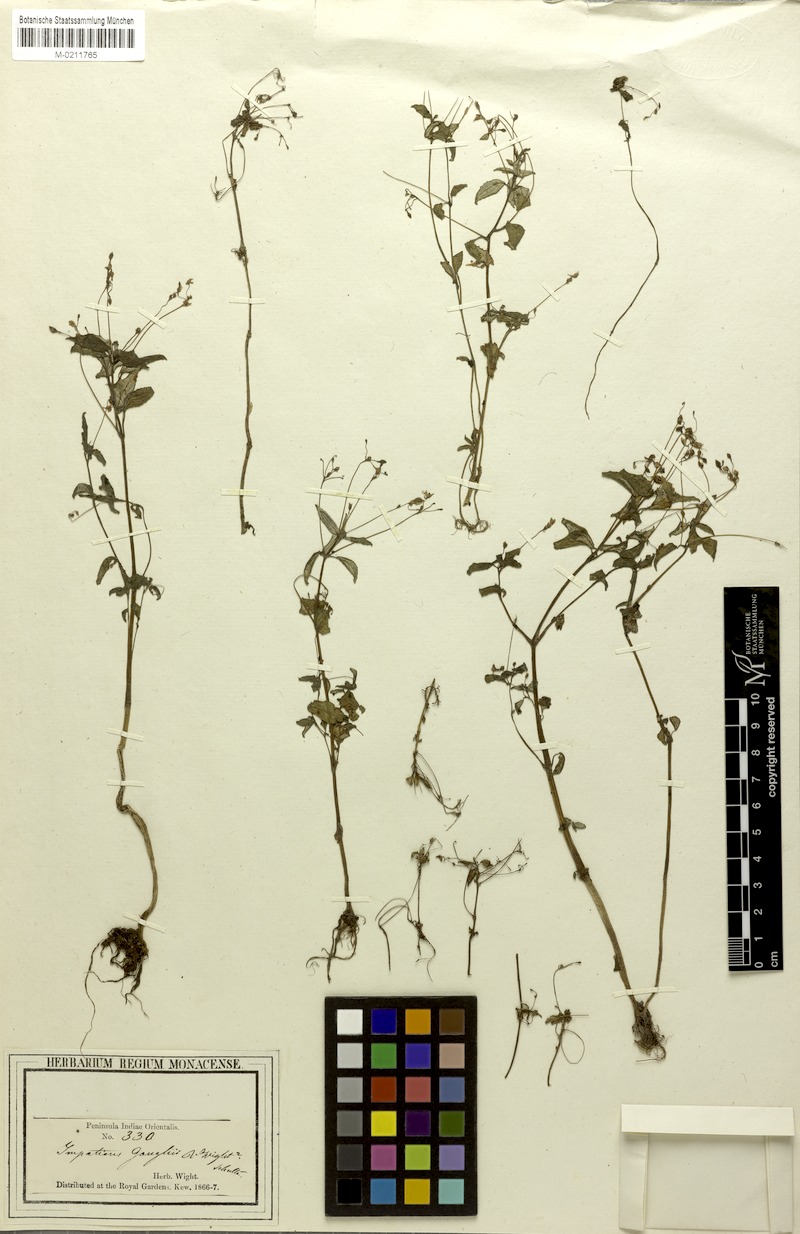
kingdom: Plantae
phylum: Tracheophyta
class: Magnoliopsida
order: Ericales
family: Balsaminaceae
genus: Impatiens
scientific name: Impatiens goughii
